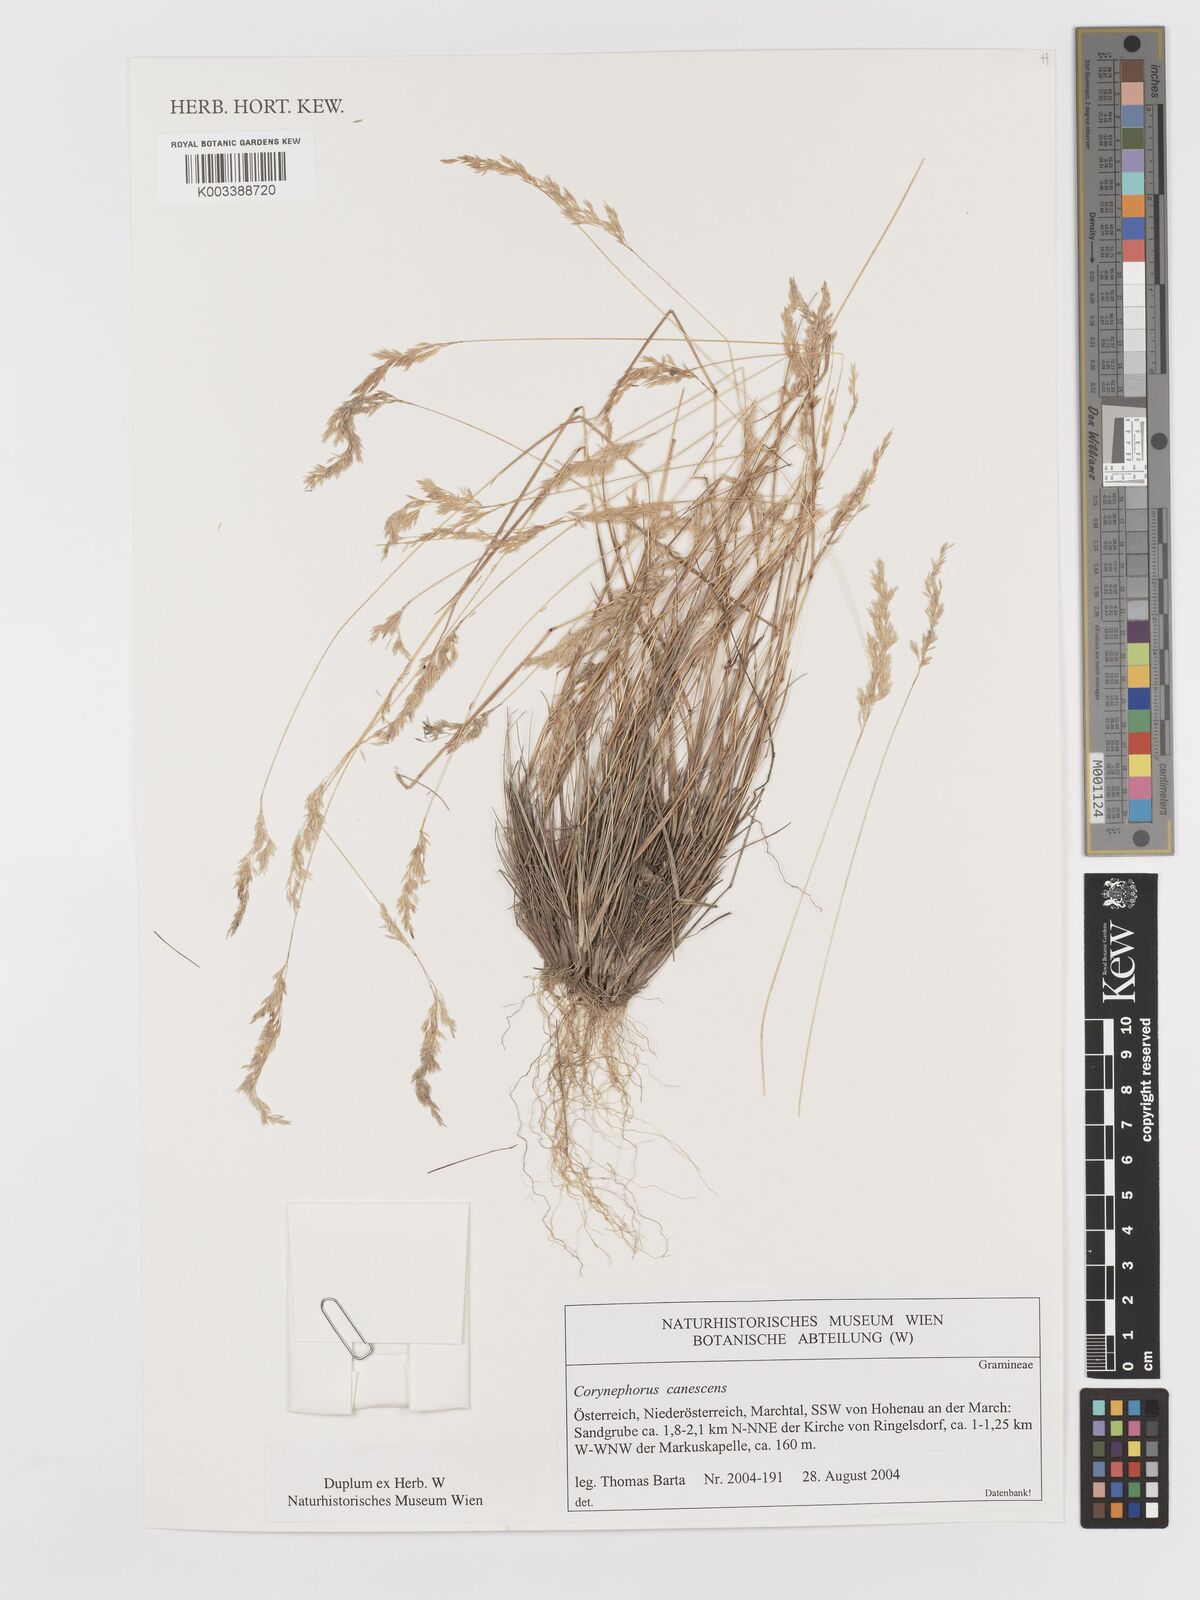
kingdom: Plantae
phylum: Tracheophyta
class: Liliopsida
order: Poales
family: Poaceae
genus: Corynephorus
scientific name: Corynephorus canescens
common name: Grey hair-grass
